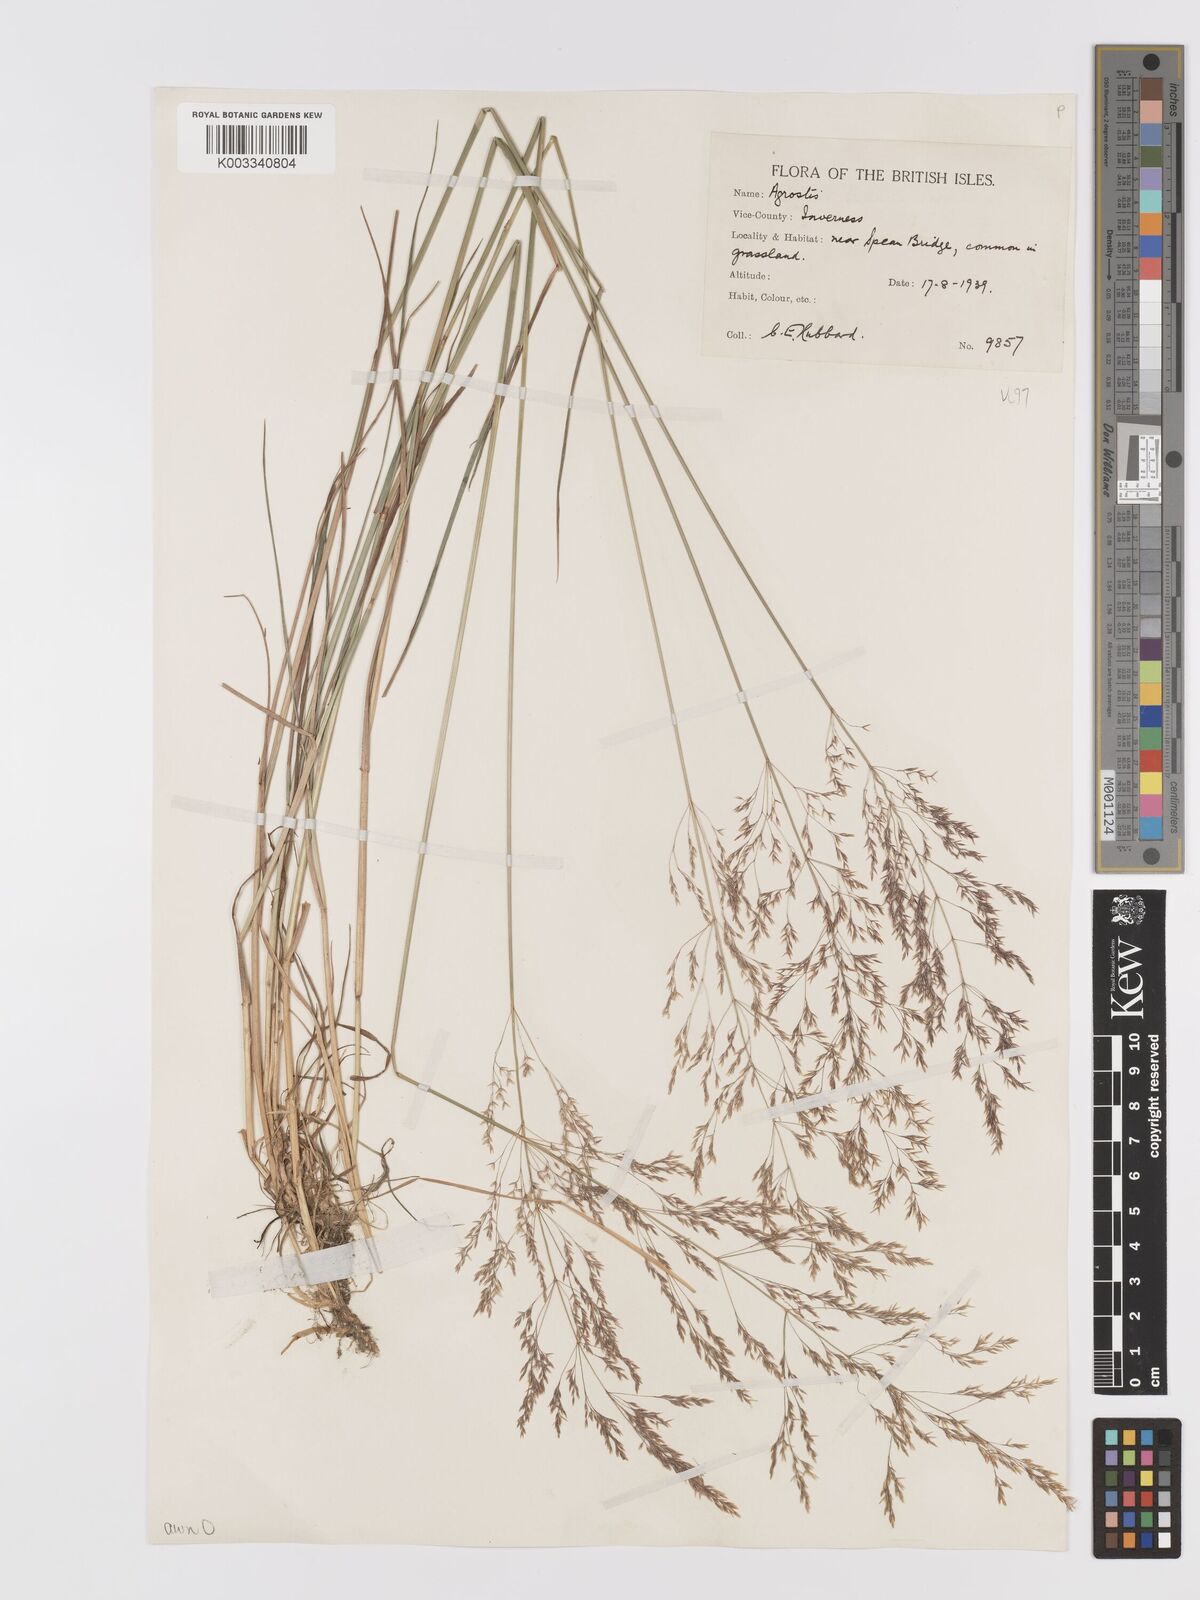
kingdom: Plantae
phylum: Tracheophyta
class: Liliopsida
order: Poales
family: Poaceae
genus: Agrostis
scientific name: Agrostis capillaris
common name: Colonial bentgrass
